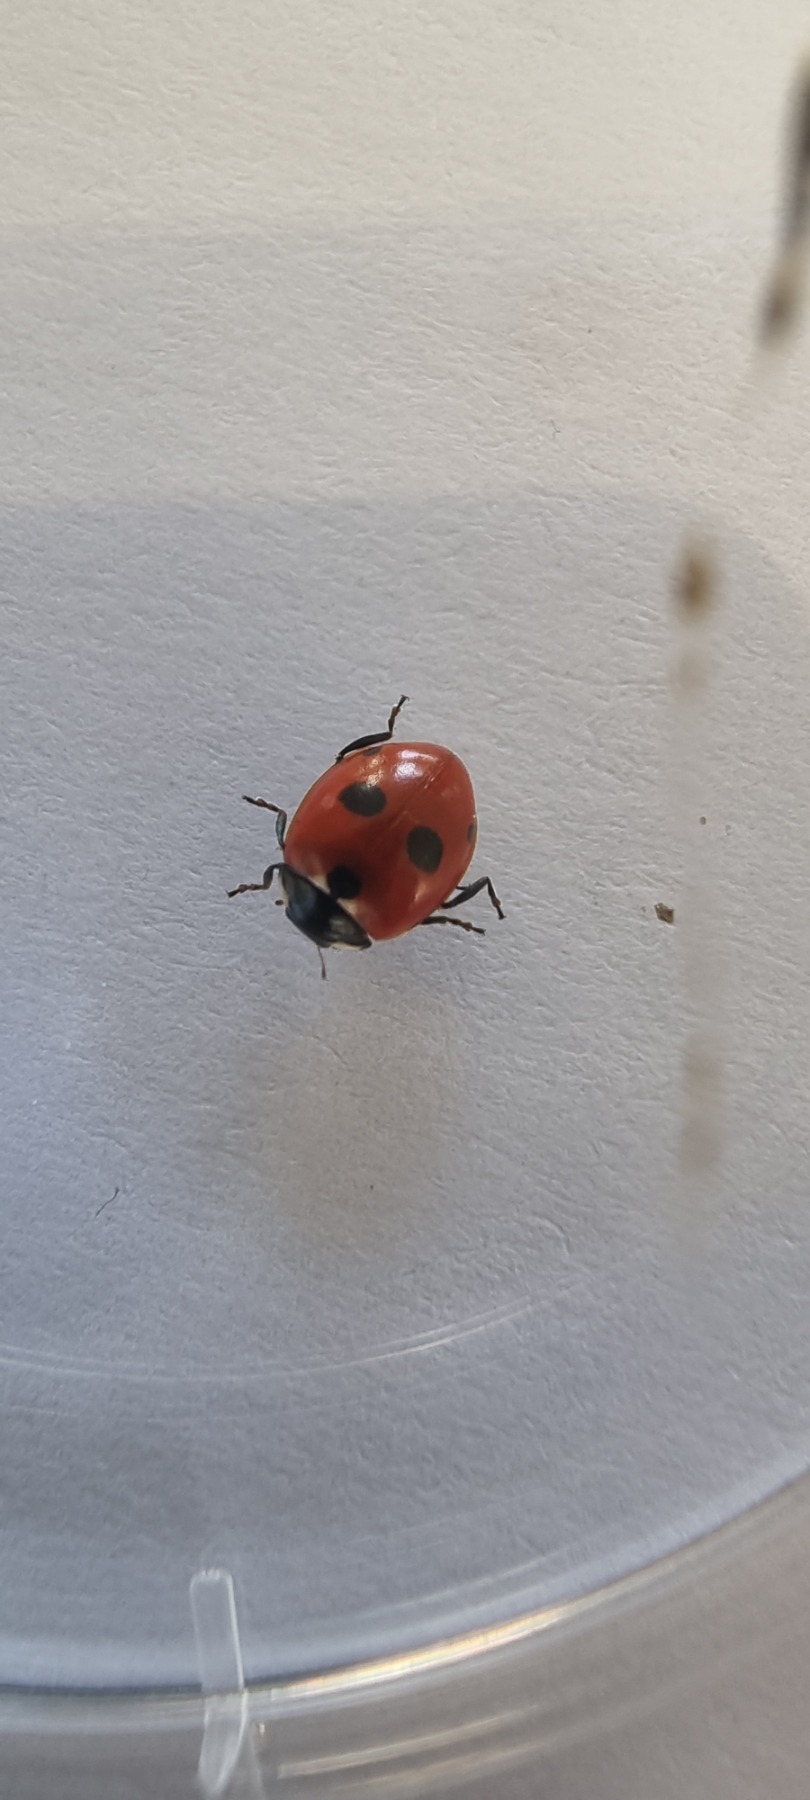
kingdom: Animalia
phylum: Arthropoda
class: Insecta
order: Coleoptera
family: Coccinellidae
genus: Coccinella
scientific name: Coccinella quinquepunctata
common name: Femplettet mariehøne
